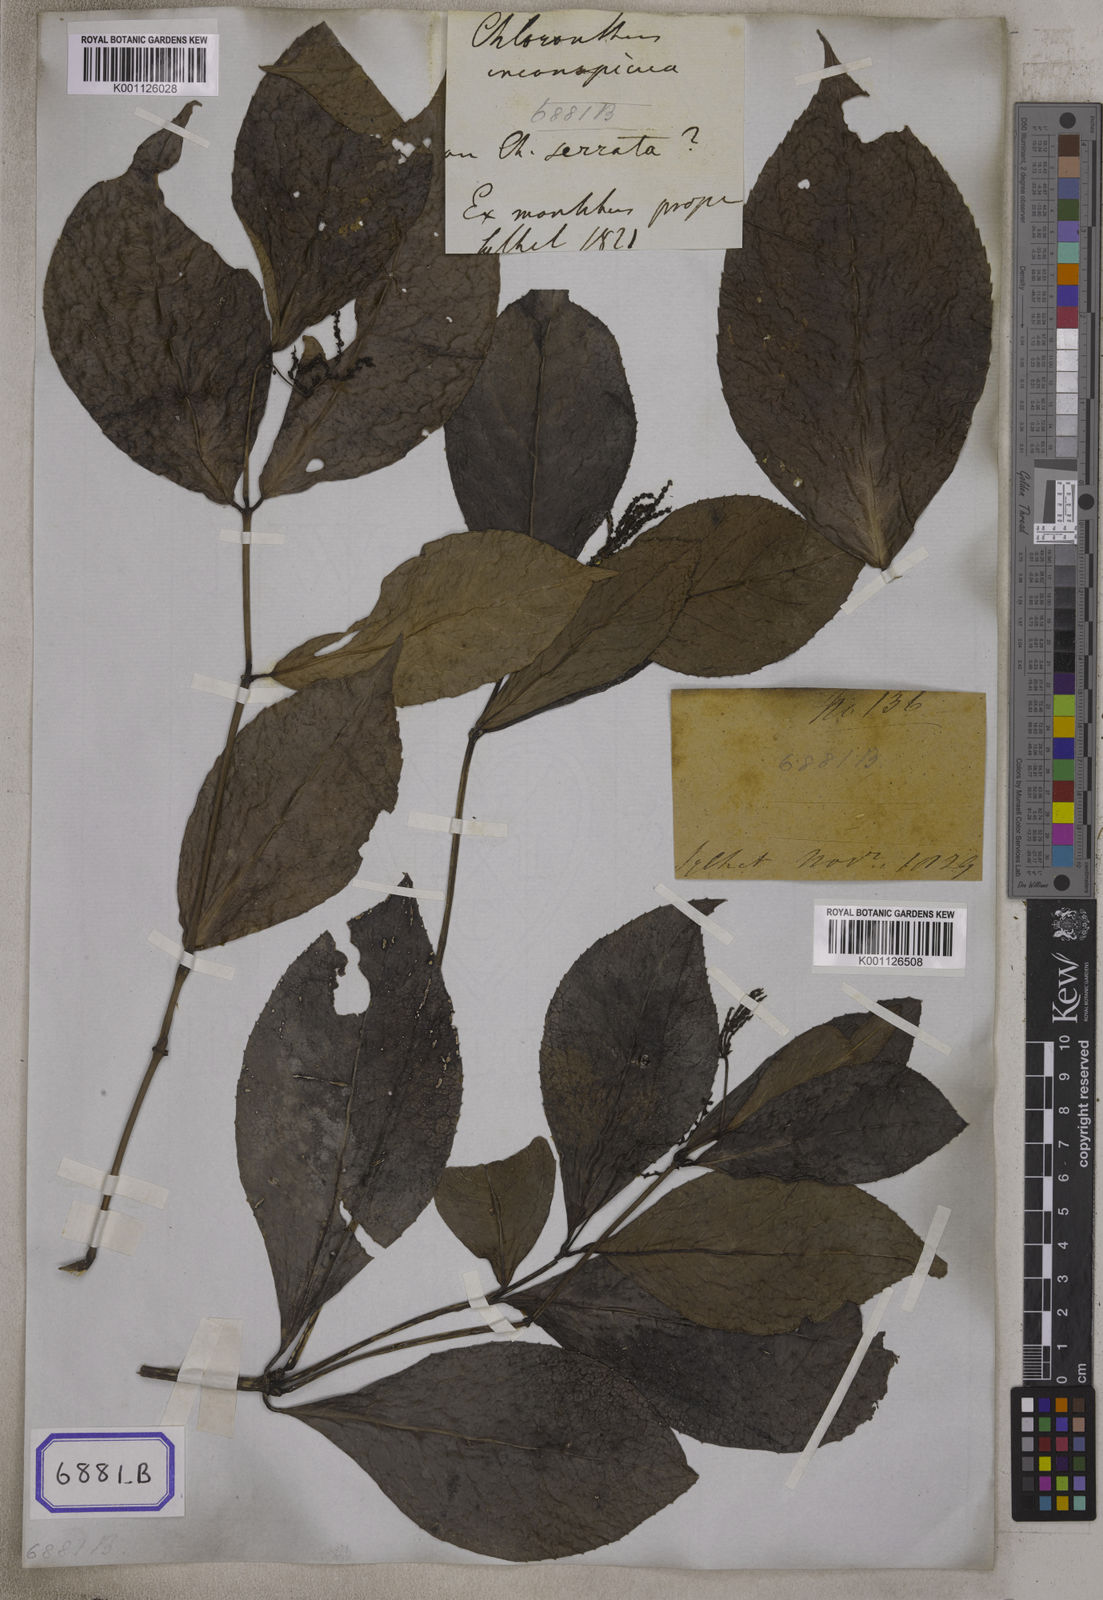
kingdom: Plantae
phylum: Tracheophyta
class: Magnoliopsida
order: Chloranthales
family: Chloranthaceae
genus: Chloranthus
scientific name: Chloranthus
